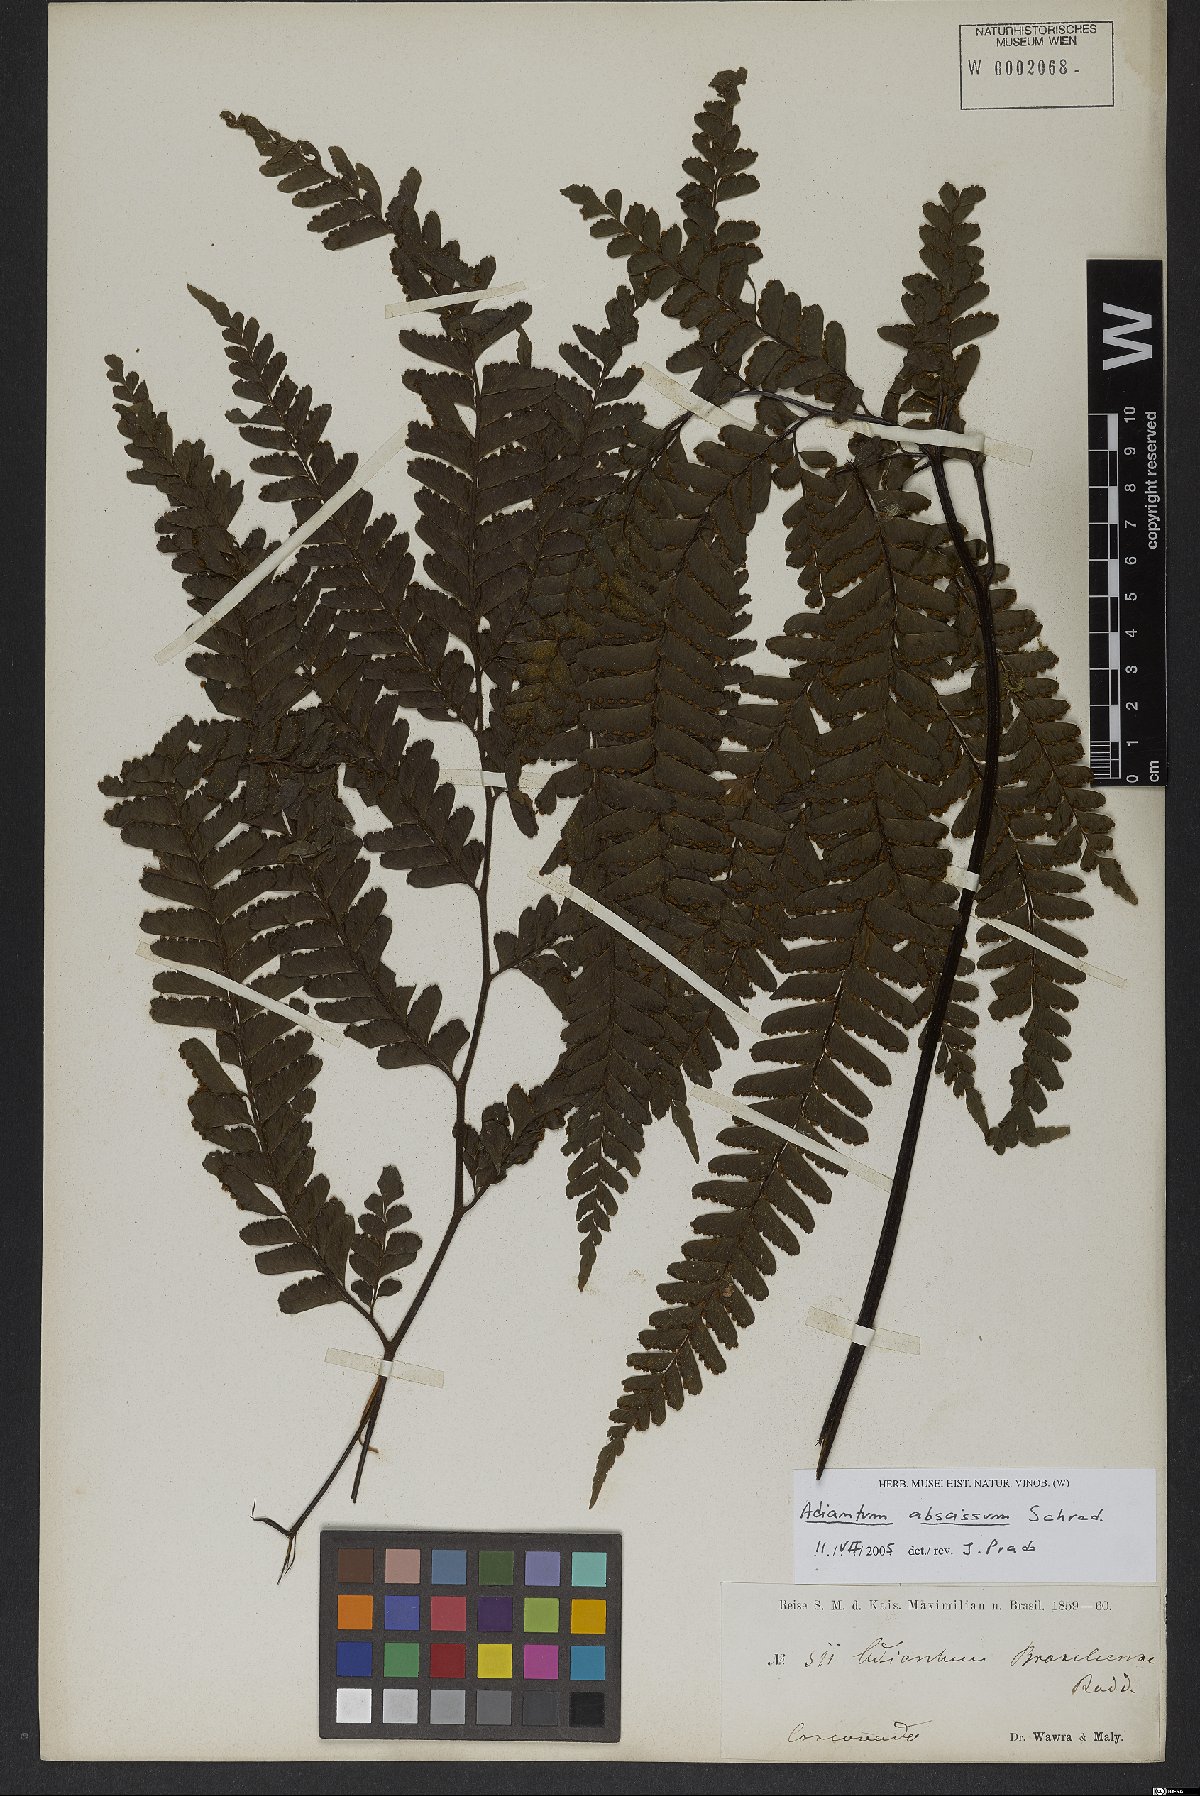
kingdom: Plantae
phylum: Tracheophyta
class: Polypodiopsida
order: Polypodiales
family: Pteridaceae
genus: Adiantum
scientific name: Adiantum abscissum
